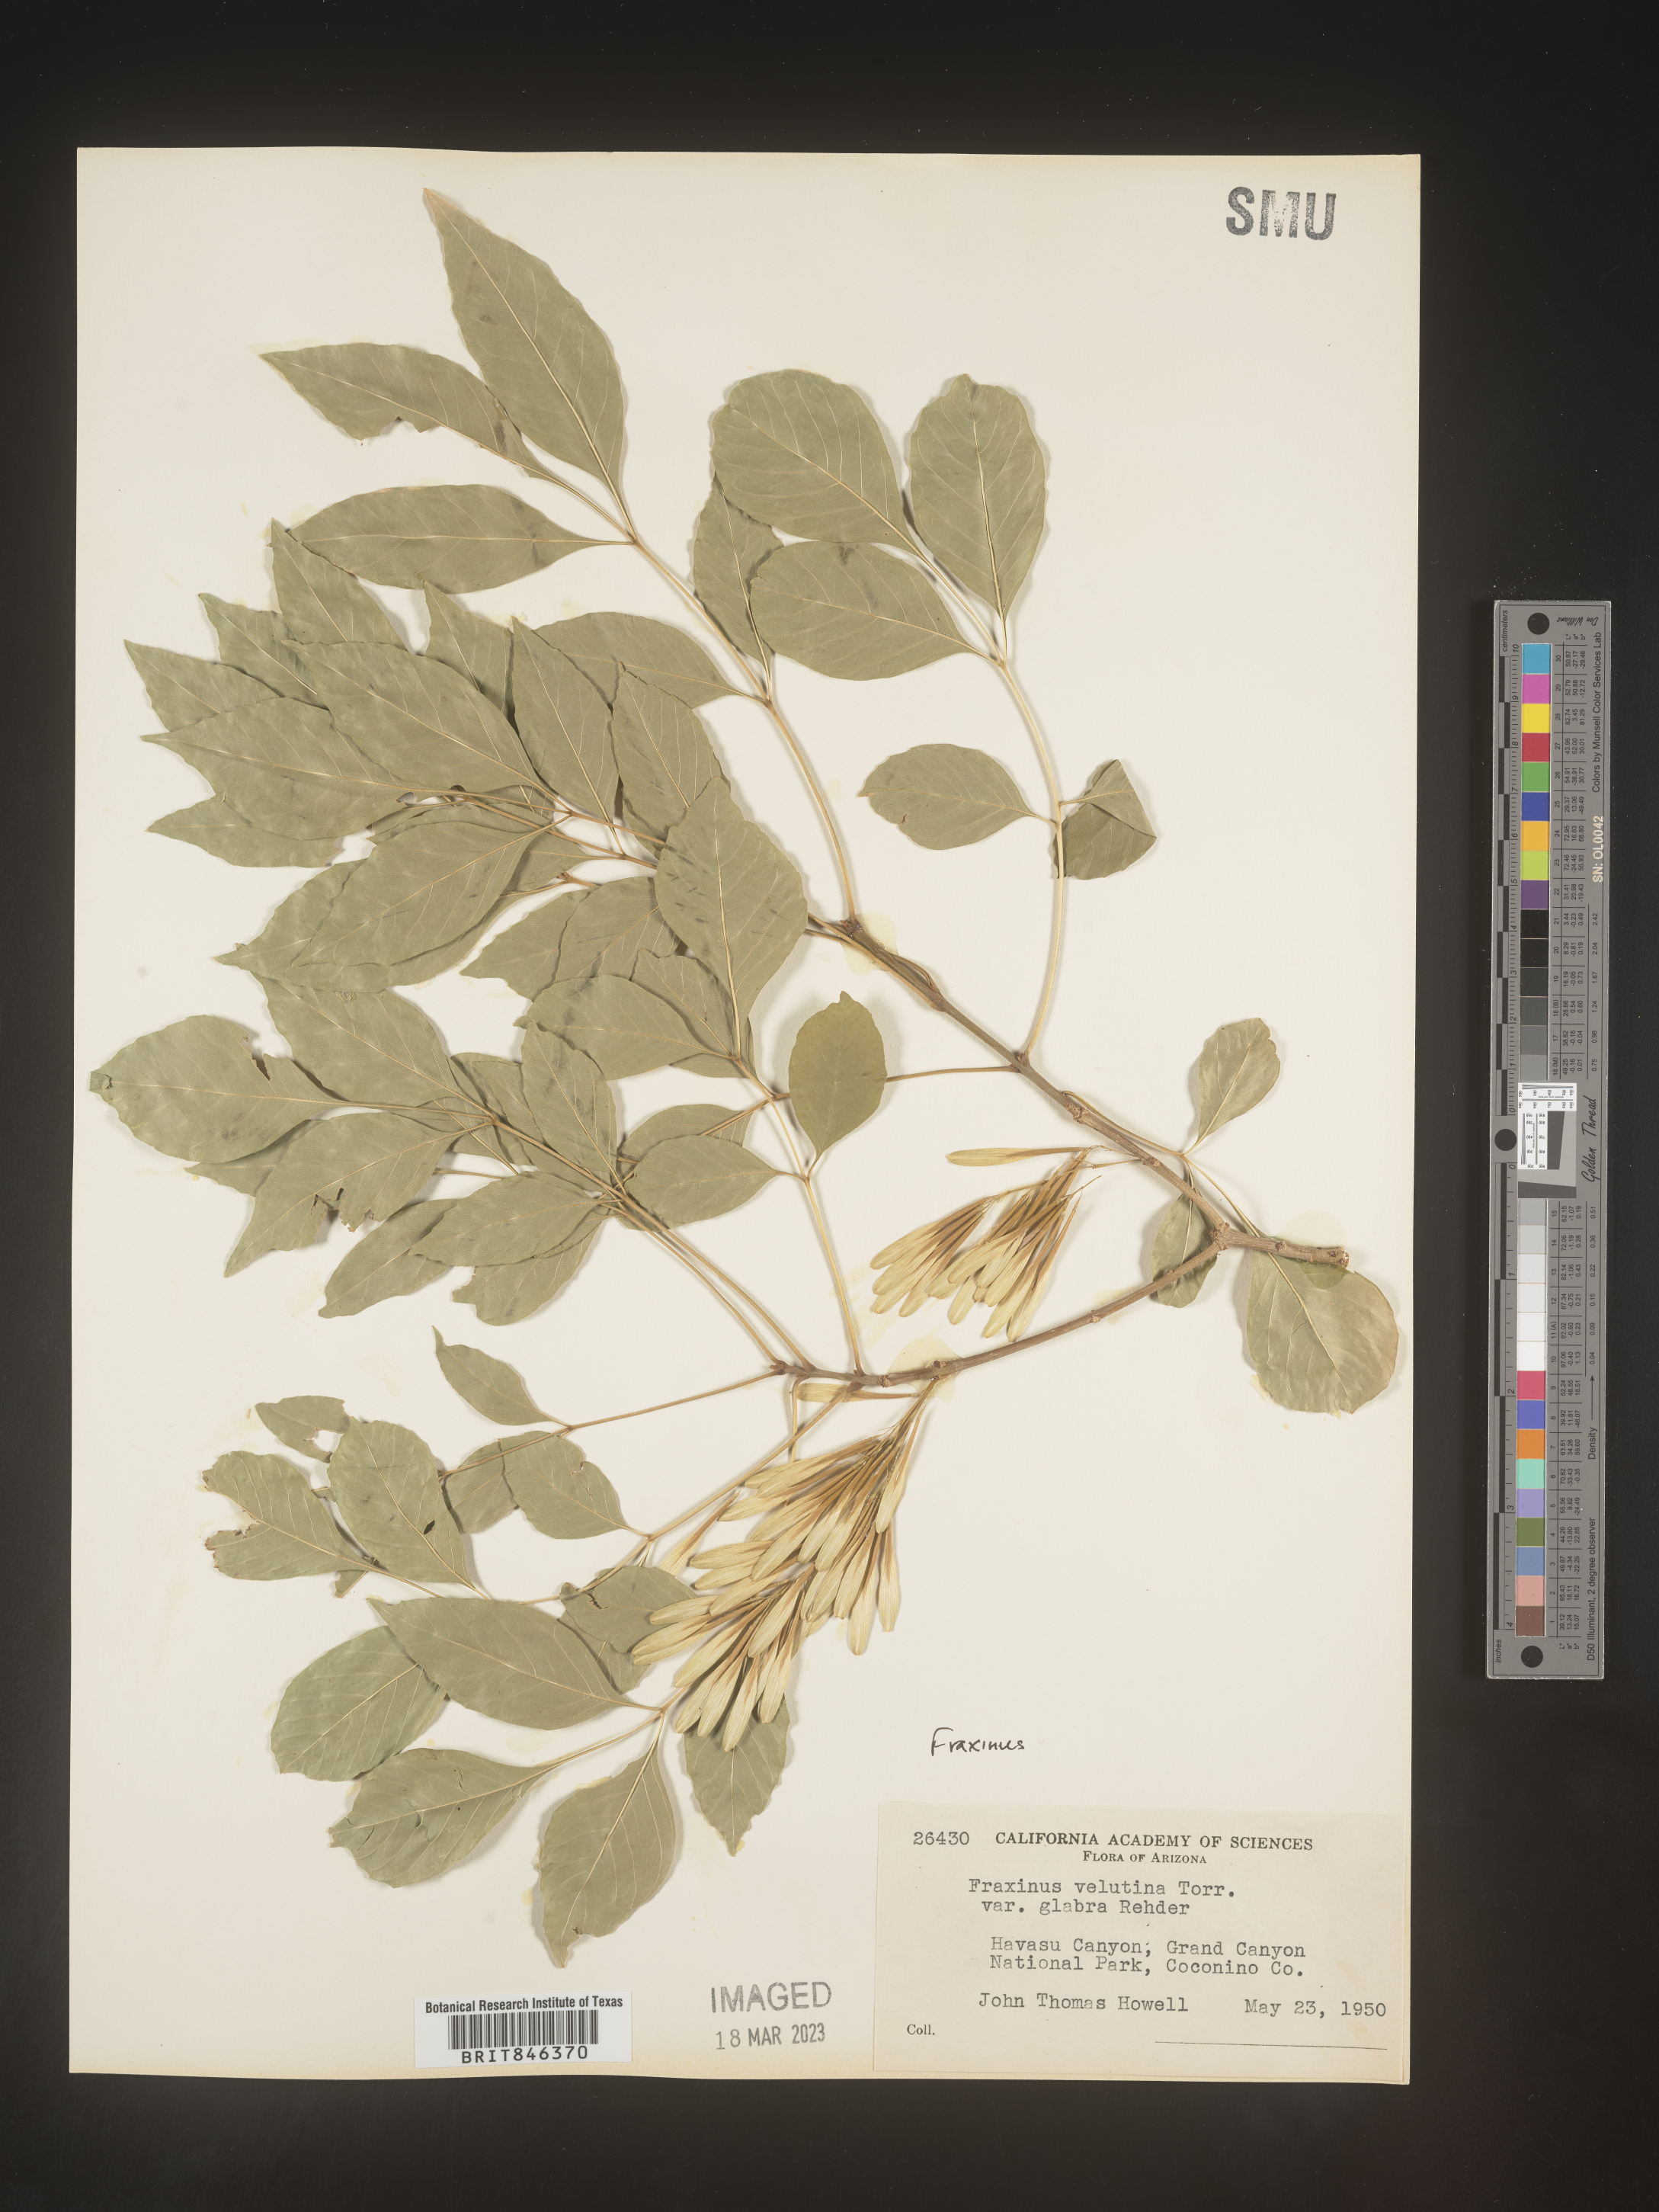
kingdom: Plantae
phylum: Tracheophyta
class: Magnoliopsida
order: Lamiales
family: Oleaceae
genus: Fraxinus
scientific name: Fraxinus velutina
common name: Arizon ash
